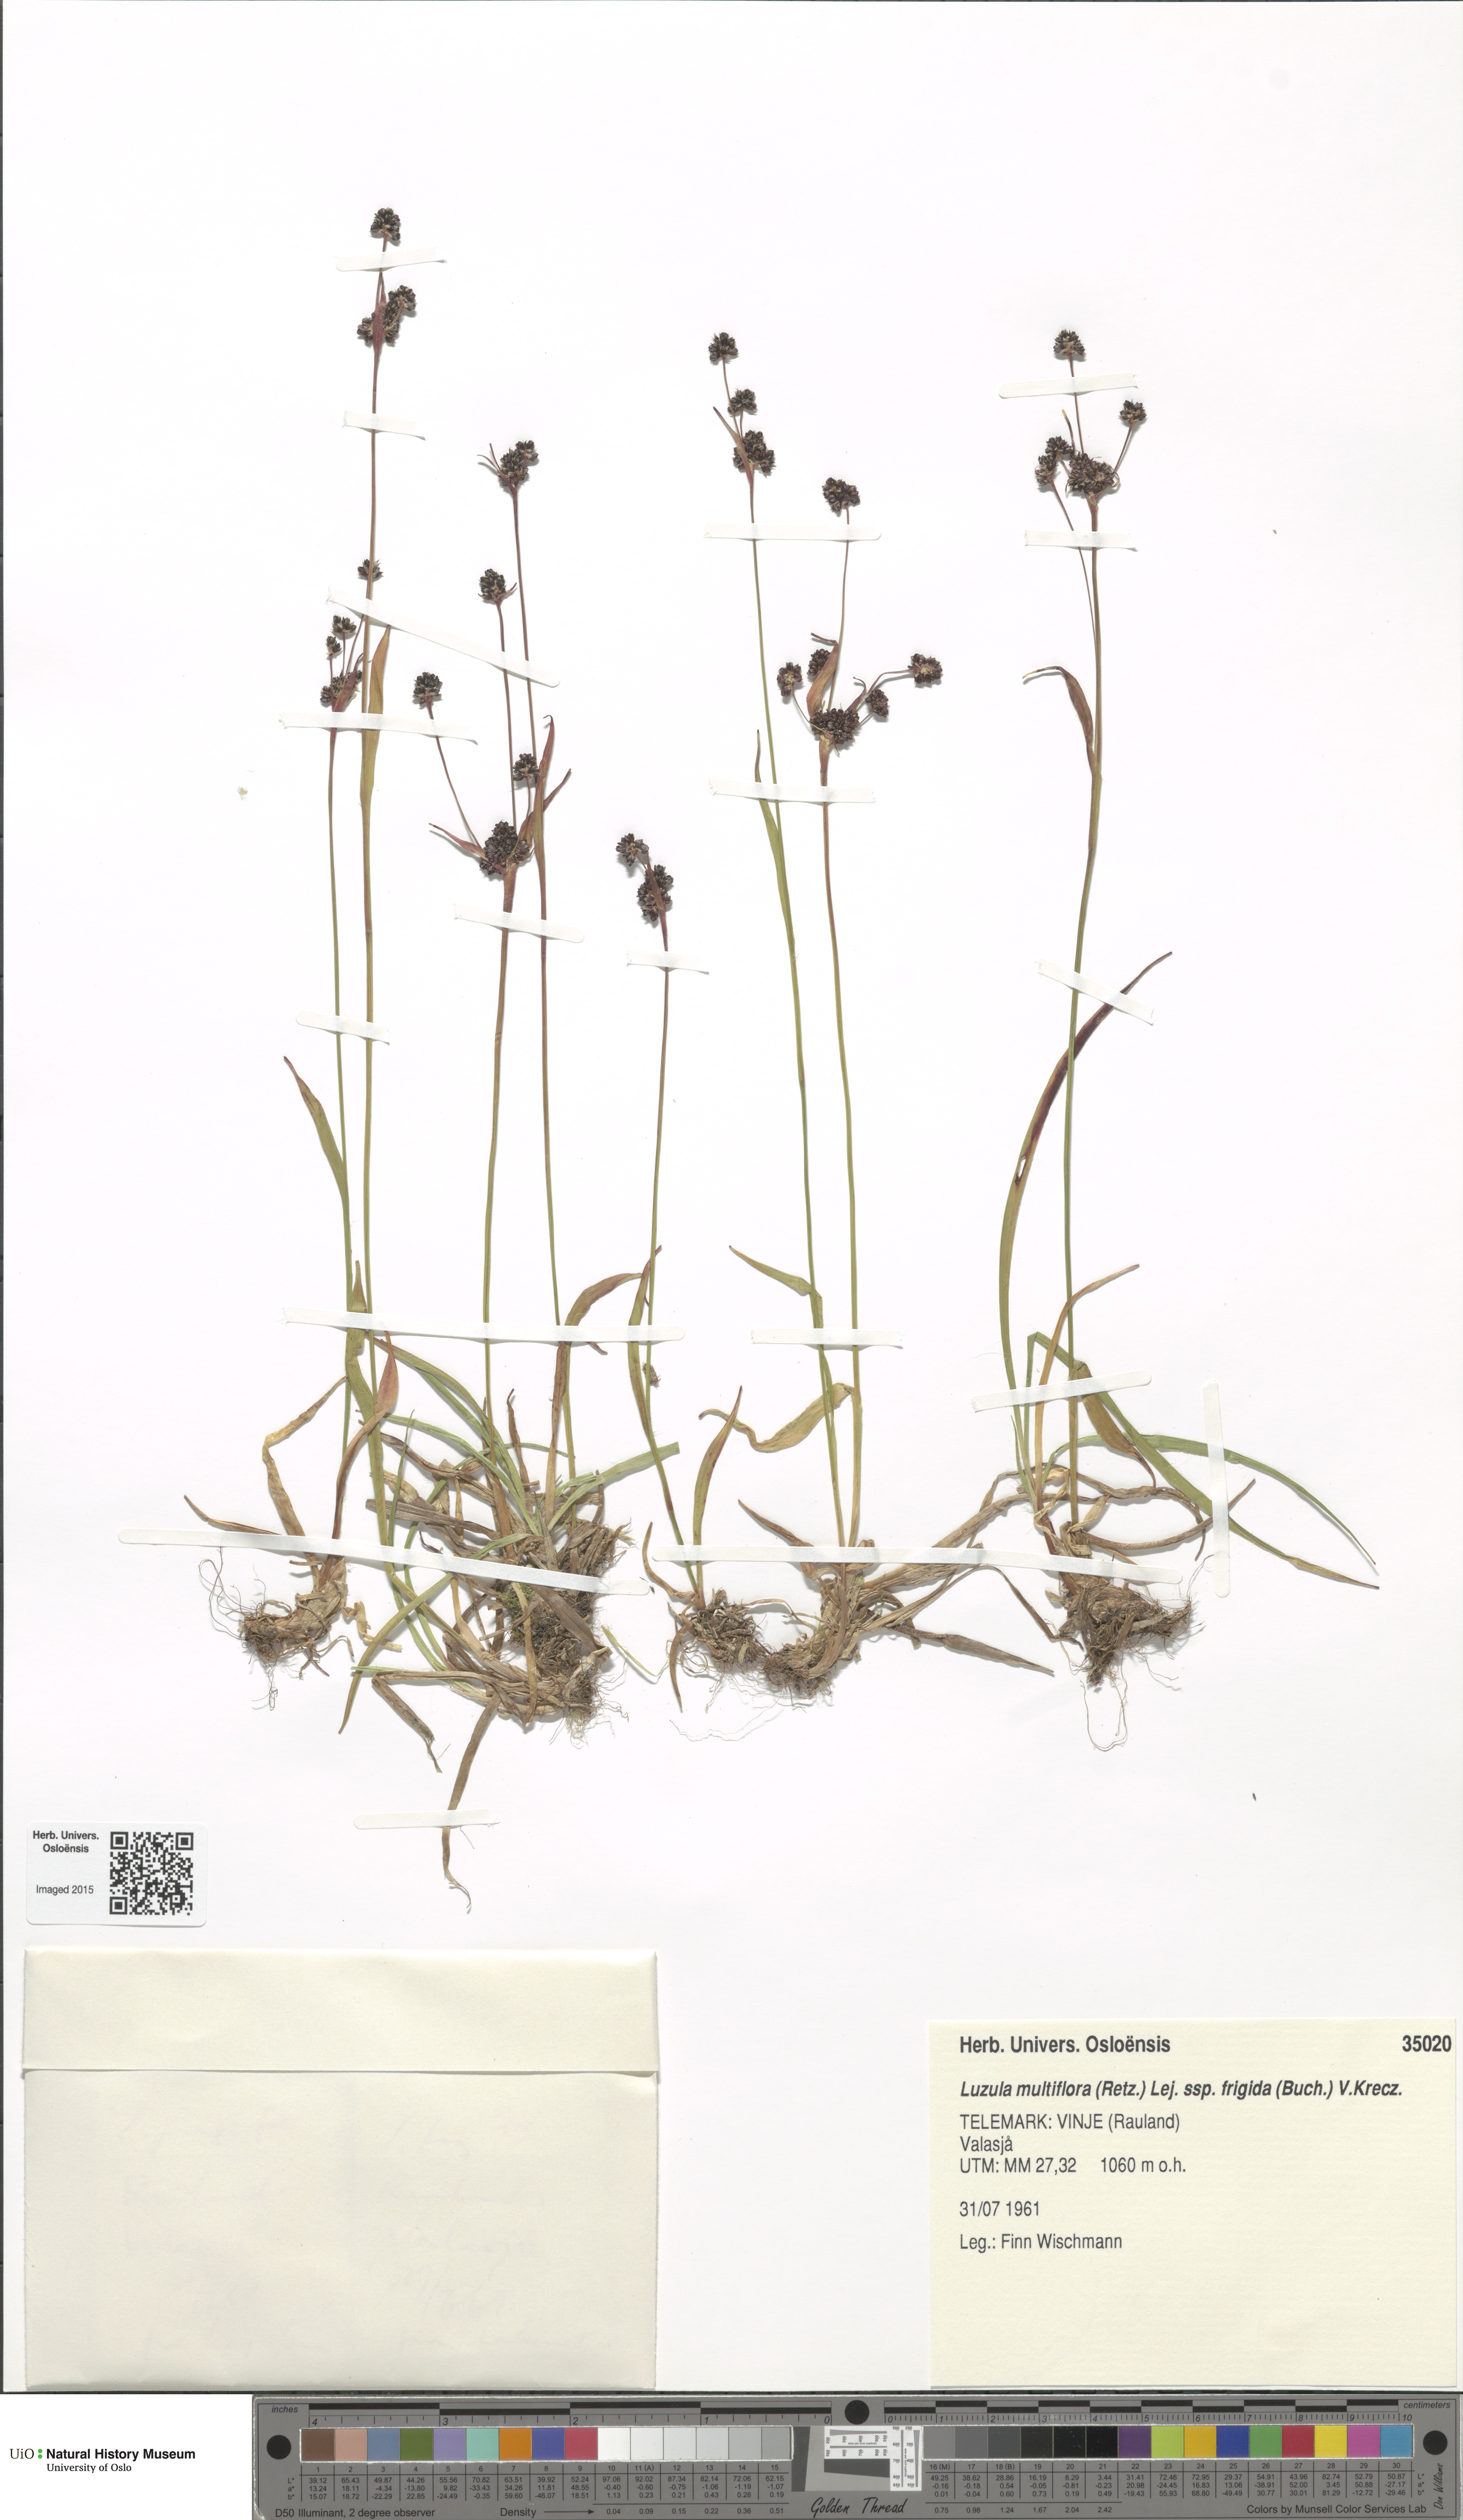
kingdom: Plantae
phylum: Tracheophyta
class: Liliopsida
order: Poales
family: Juncaceae
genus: Luzula
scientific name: Luzula multiflora
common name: Heath wood-rush
